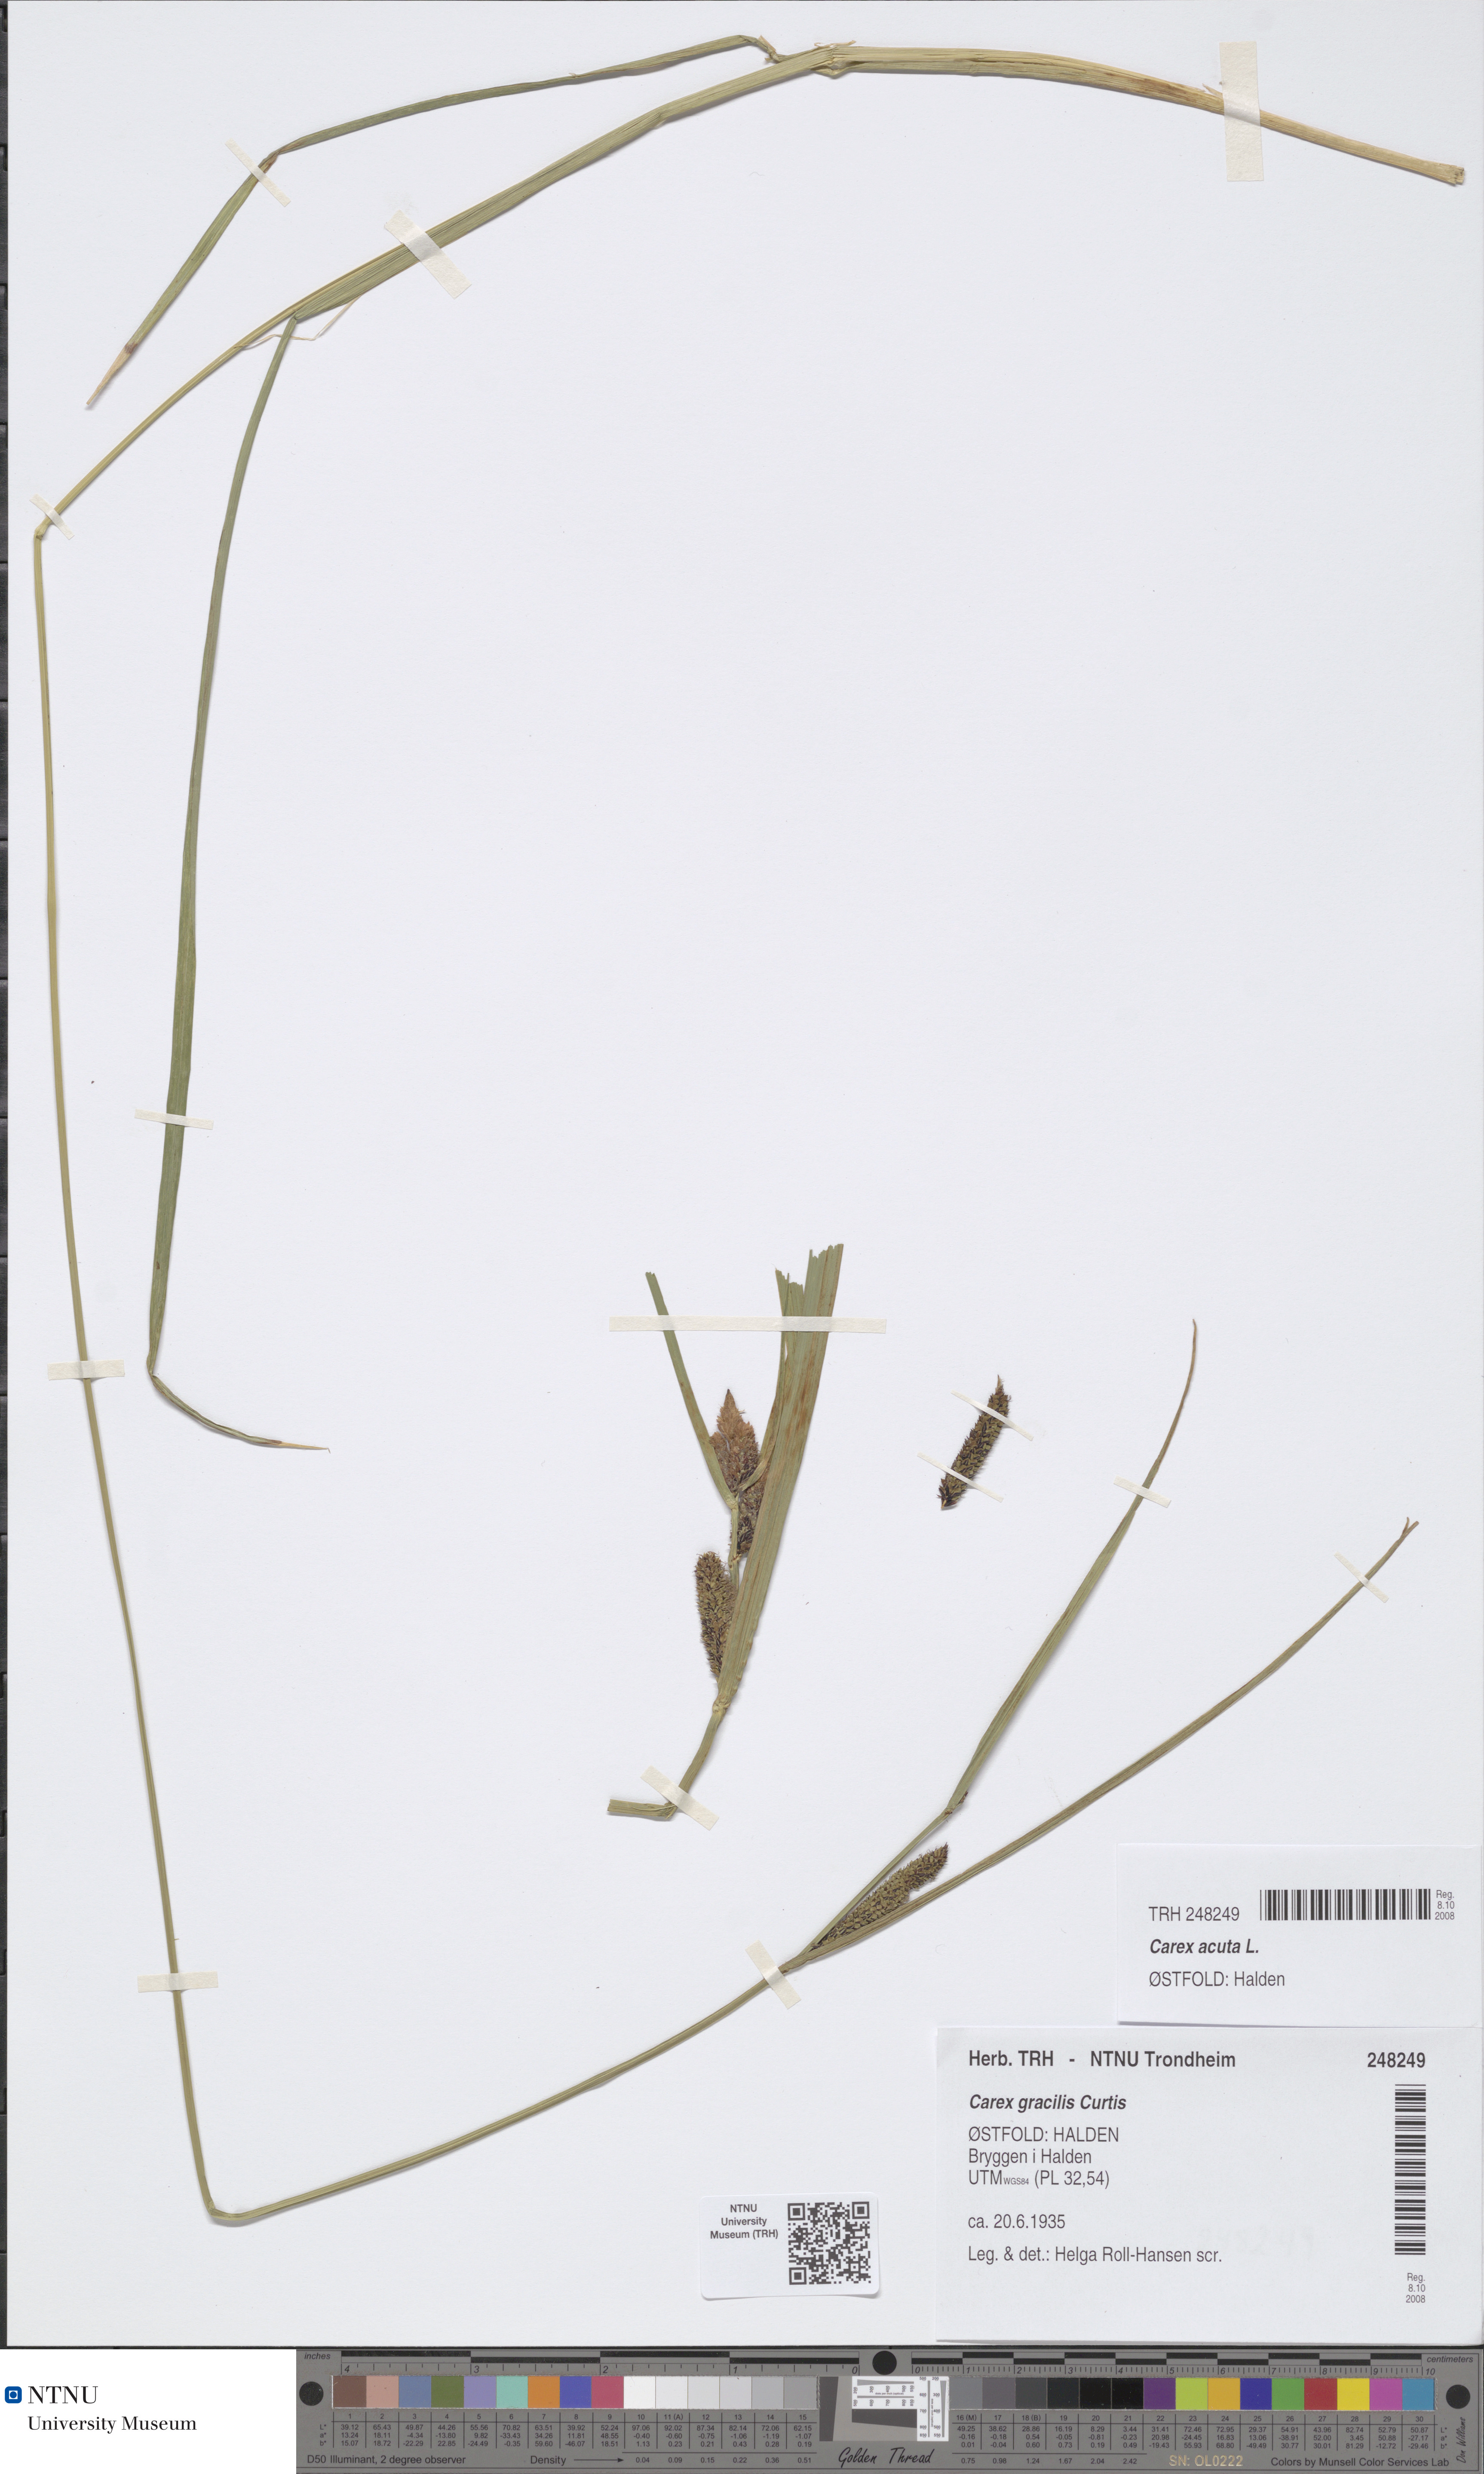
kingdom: Plantae
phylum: Tracheophyta
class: Liliopsida
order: Poales
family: Cyperaceae
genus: Carex
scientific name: Carex acuta
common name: Slender tufted-sedge
